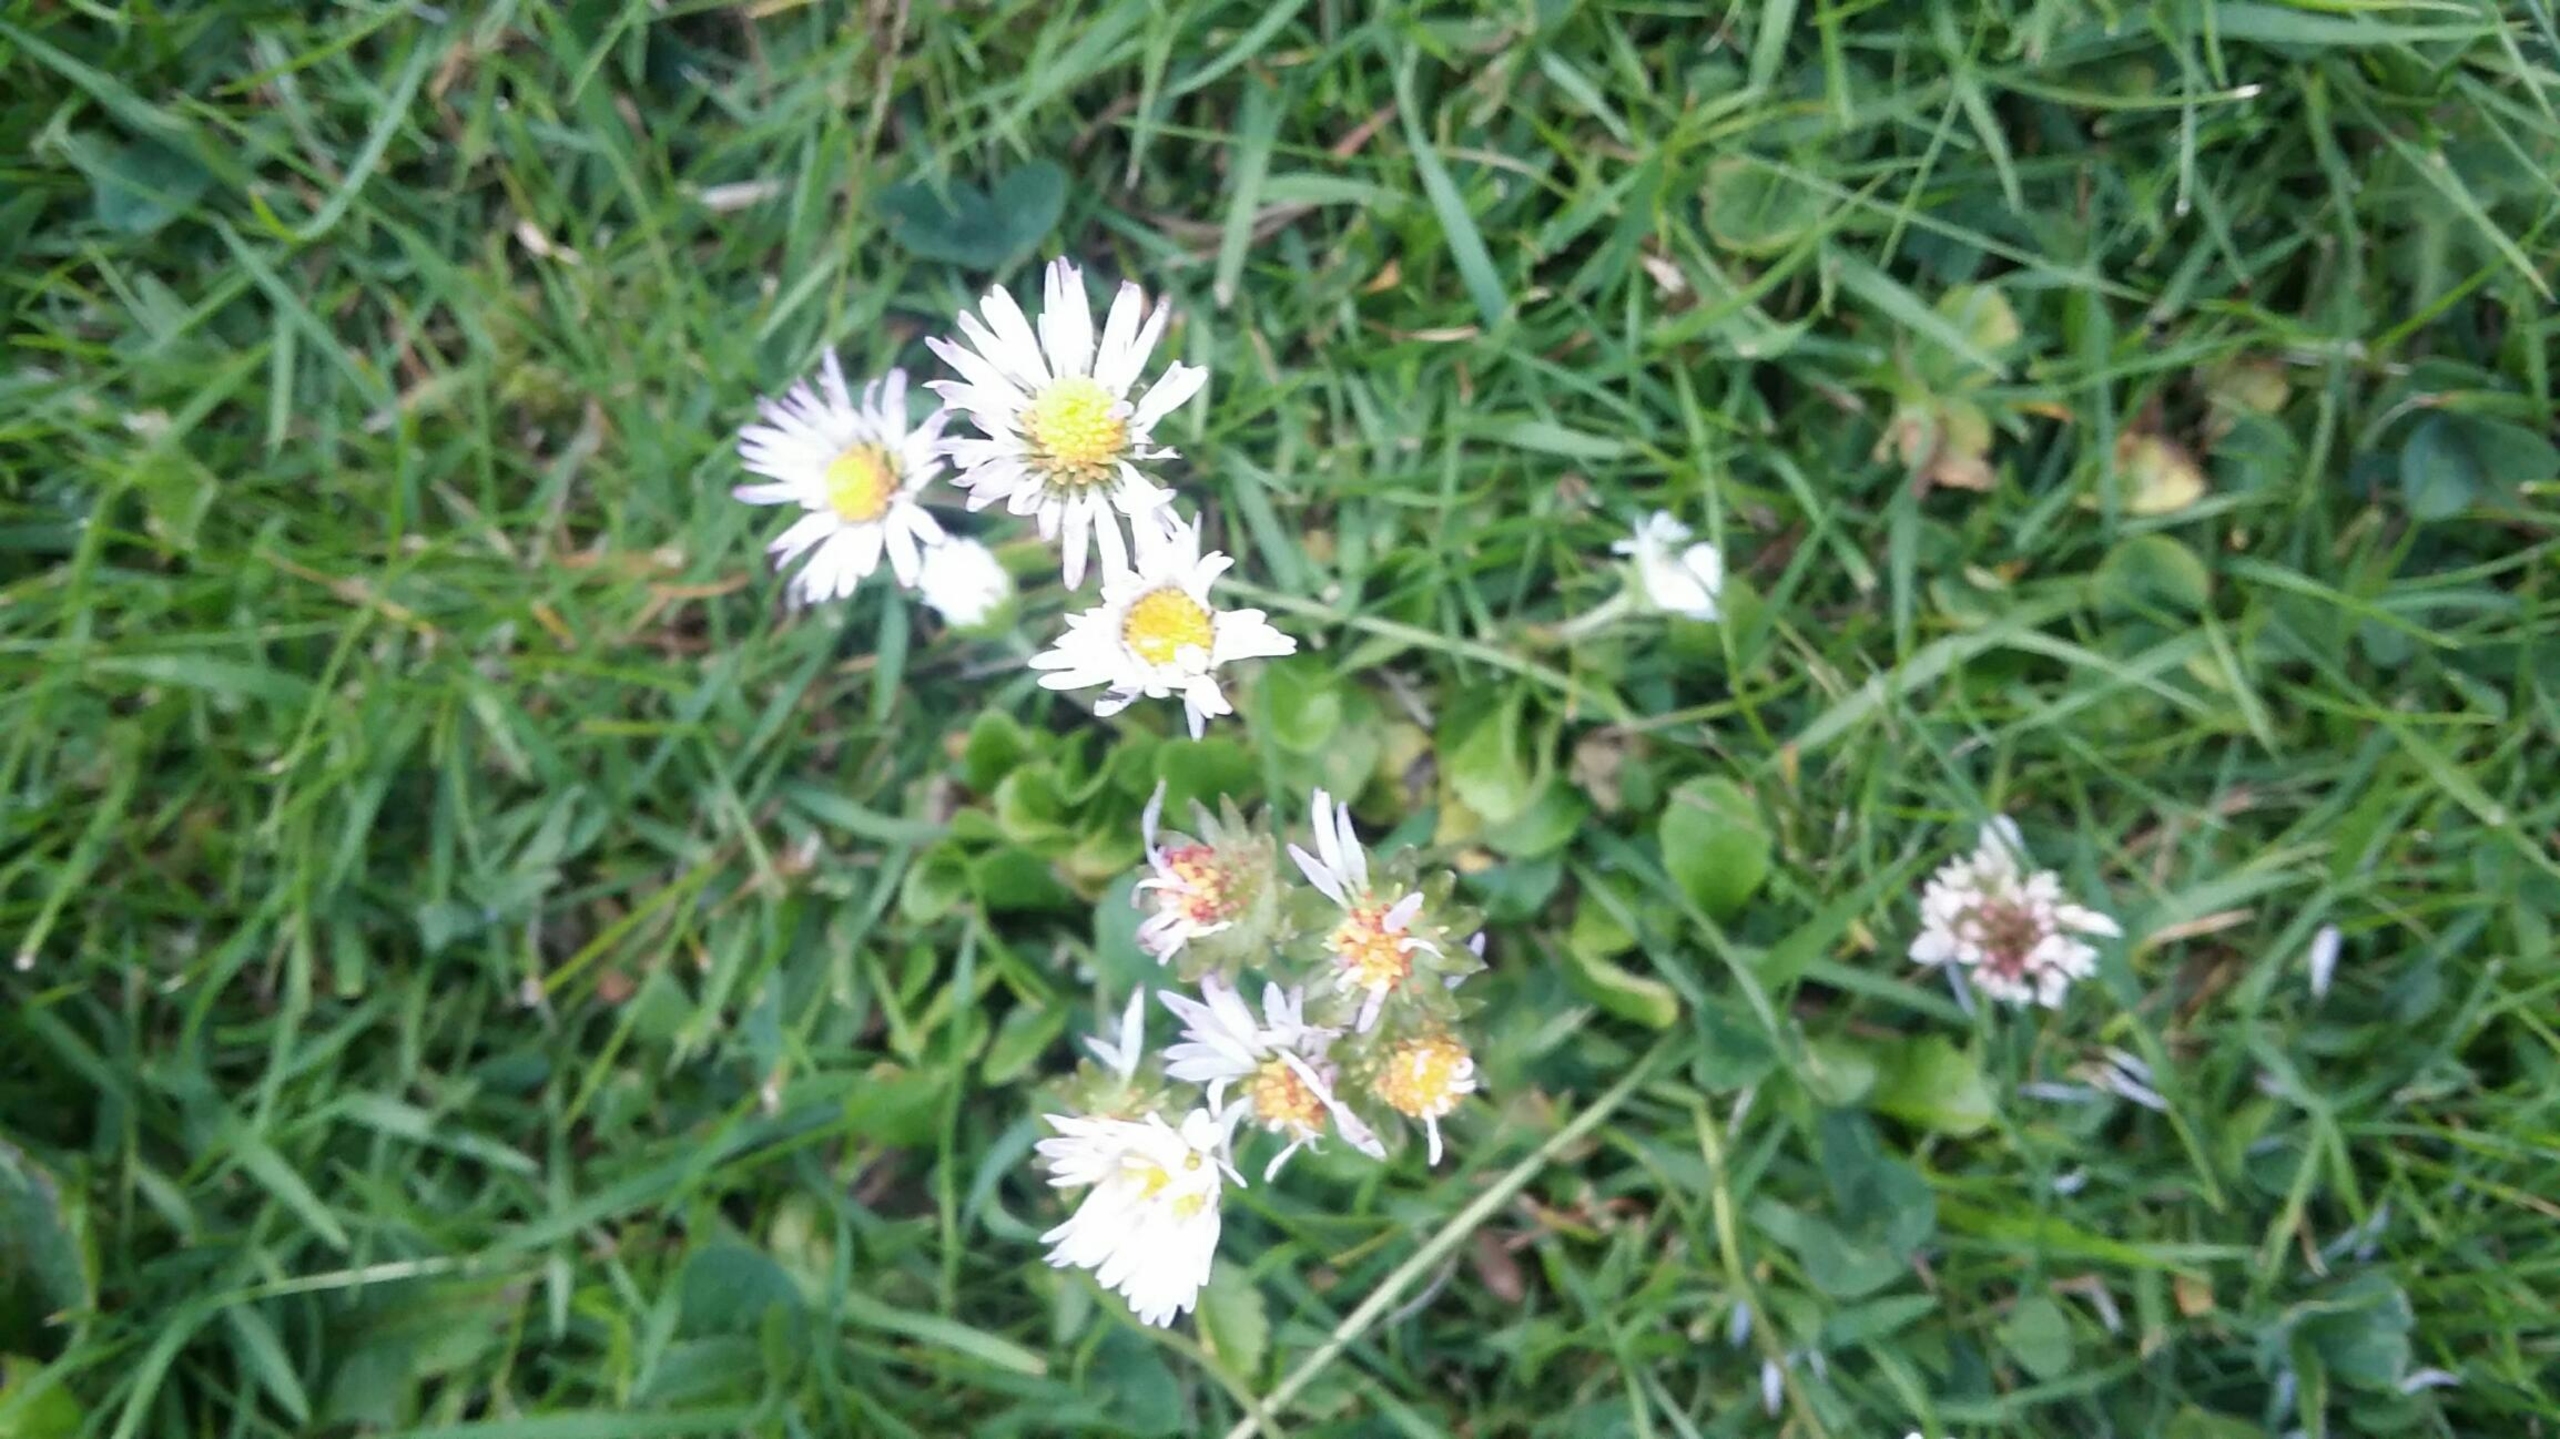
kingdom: Plantae
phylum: Tracheophyta
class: Magnoliopsida
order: Asterales
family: Asteraceae
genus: Bellis
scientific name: Bellis perennis
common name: Tusindfryd
